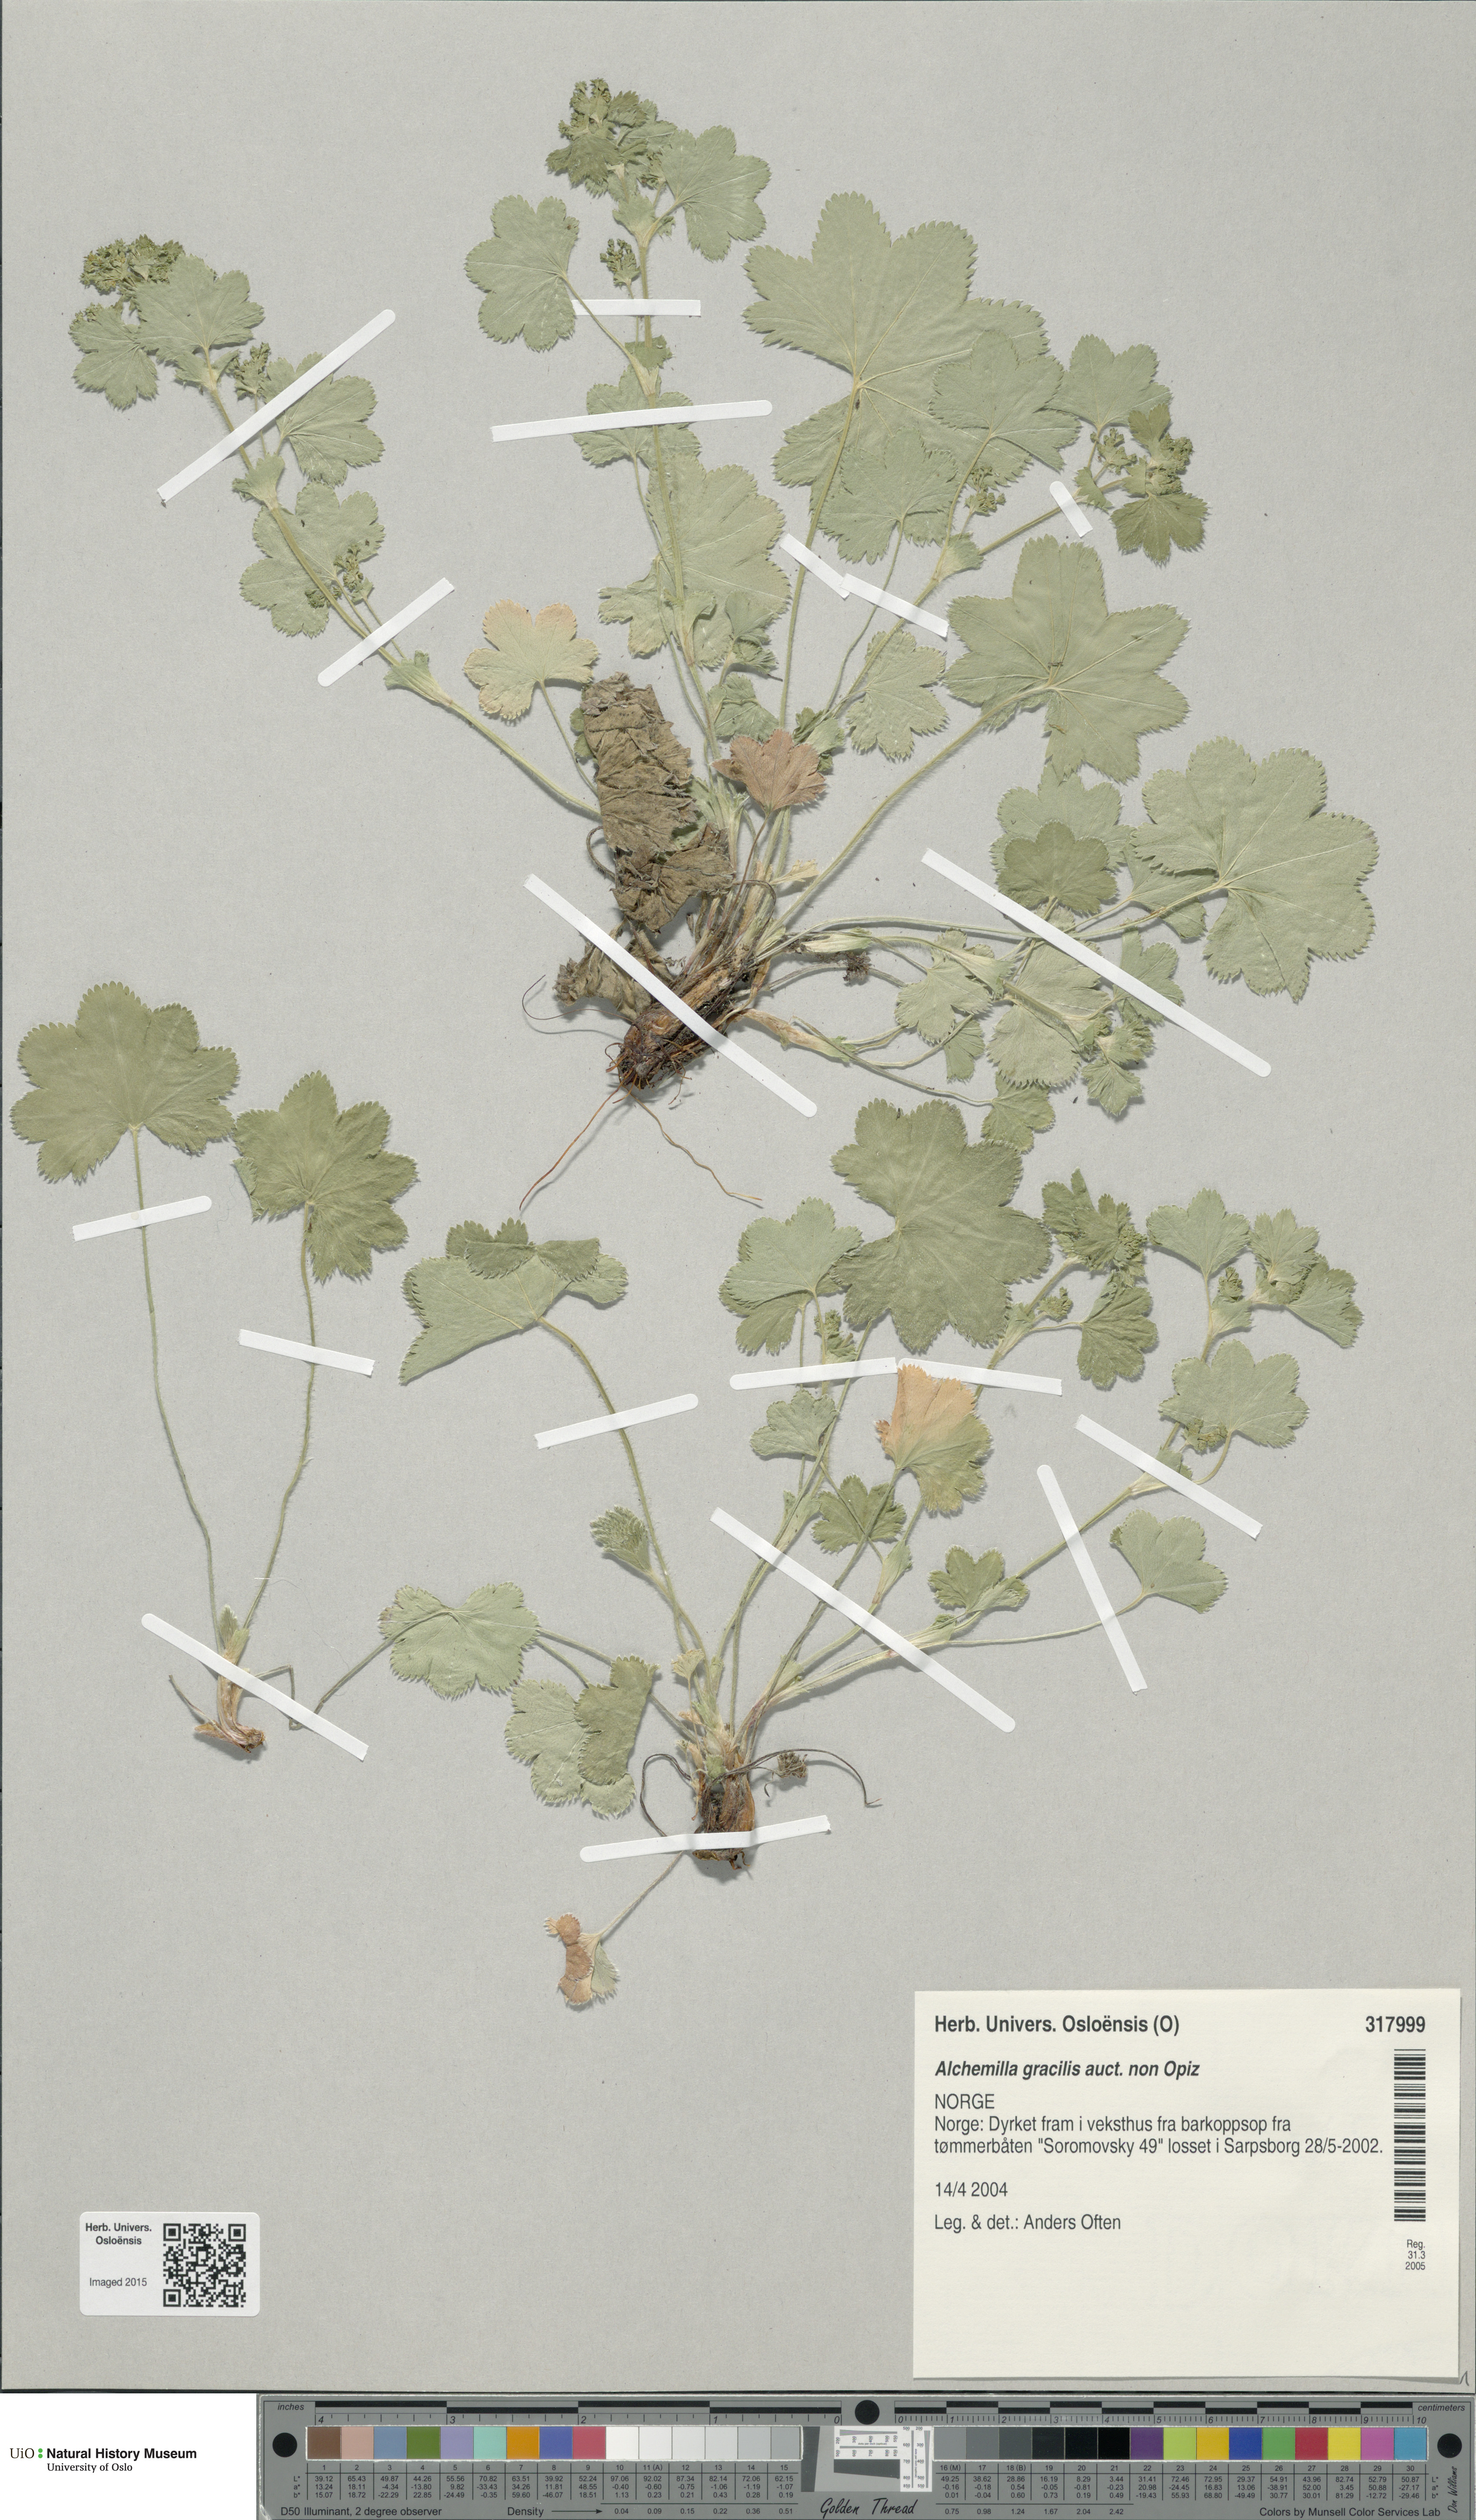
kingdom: Plantae
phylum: Tracheophyta
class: Magnoliopsida
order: Rosales
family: Rosaceae
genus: Alchemilla
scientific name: Alchemilla micans
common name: Gleaming lady's mantle
